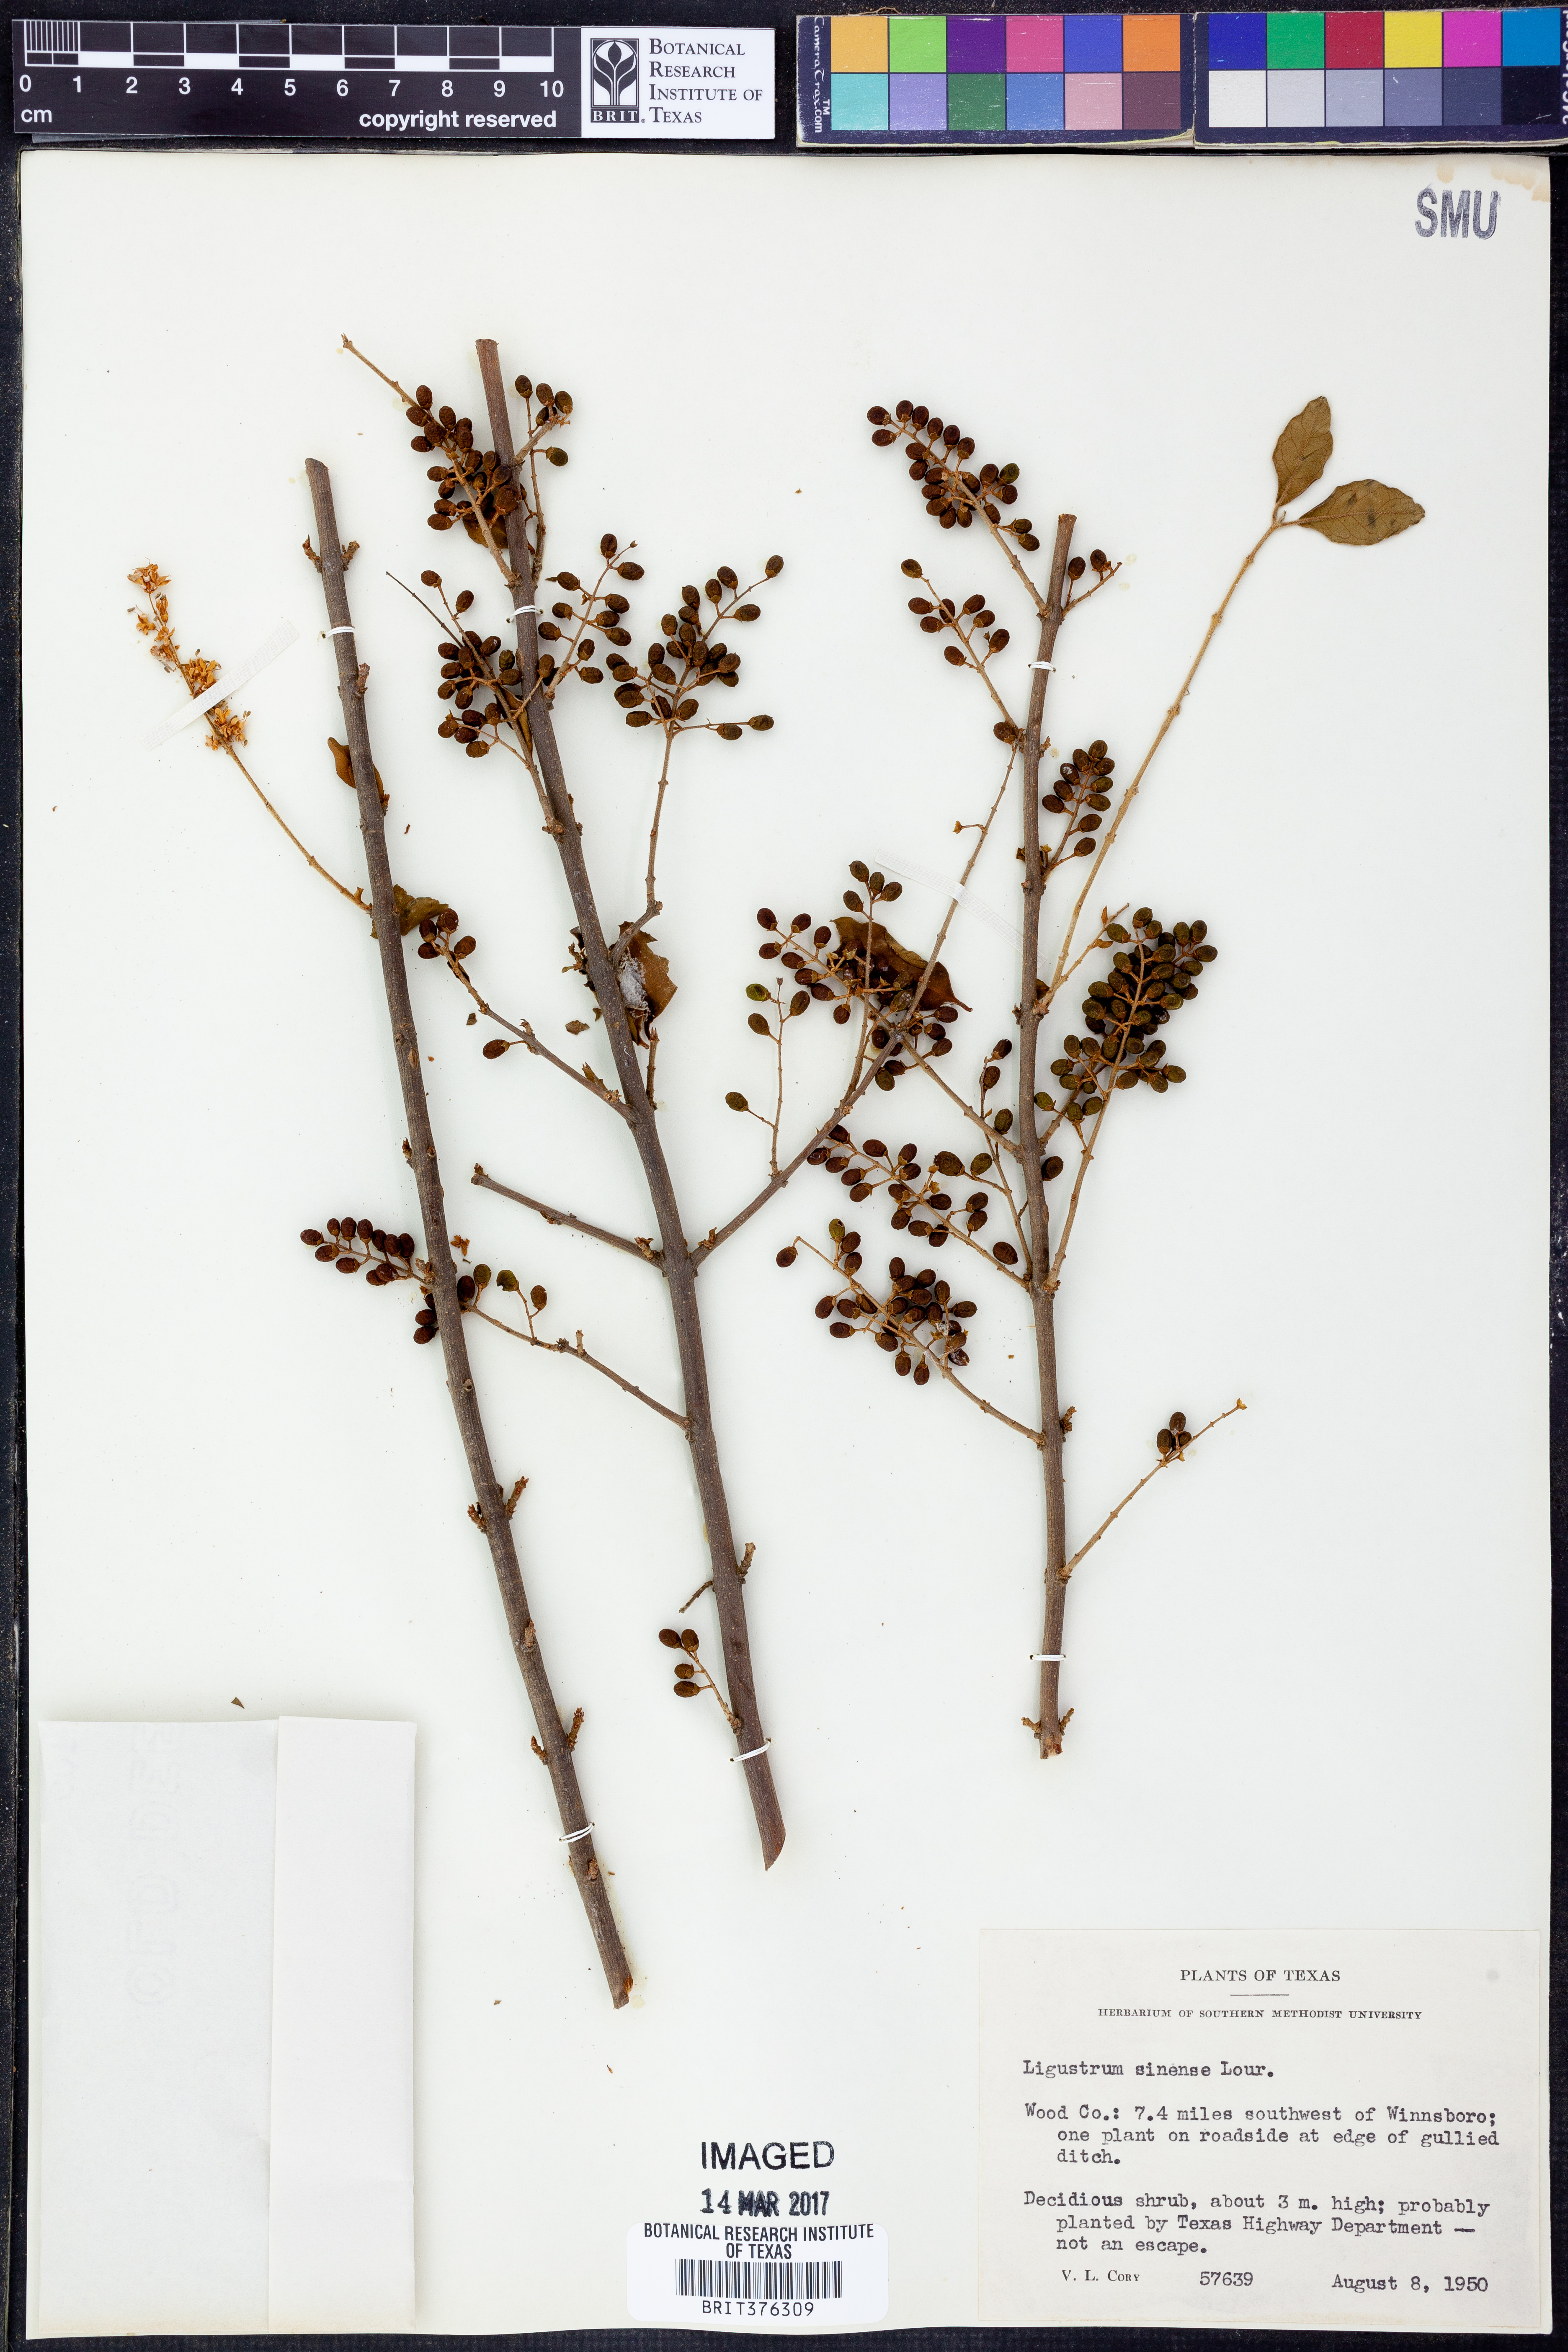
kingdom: Plantae
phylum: Tracheophyta
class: Magnoliopsida
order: Lamiales
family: Oleaceae
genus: Ligustrum
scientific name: Ligustrum sinense
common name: Chinese privet
